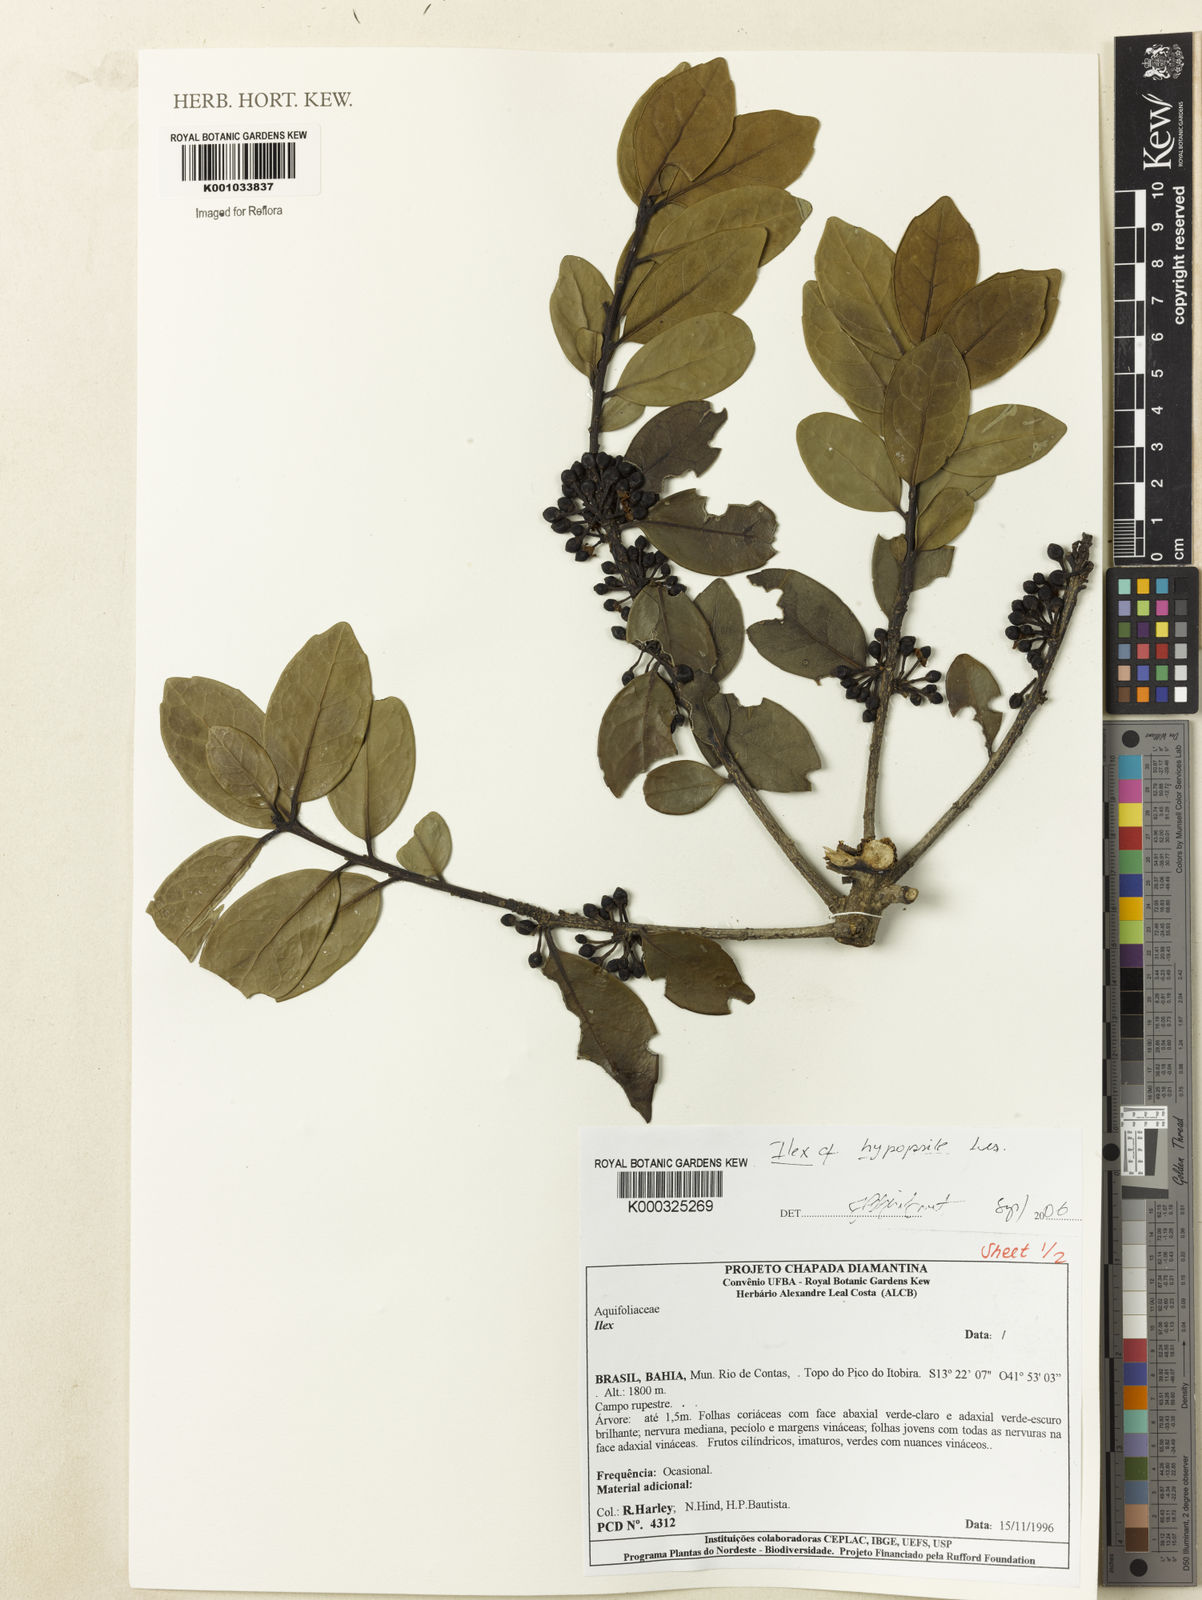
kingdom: Plantae
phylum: Tracheophyta
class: Magnoliopsida
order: Aquifoliales
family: Aquifoliaceae
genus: Ilex
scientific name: Ilex hypopsile
